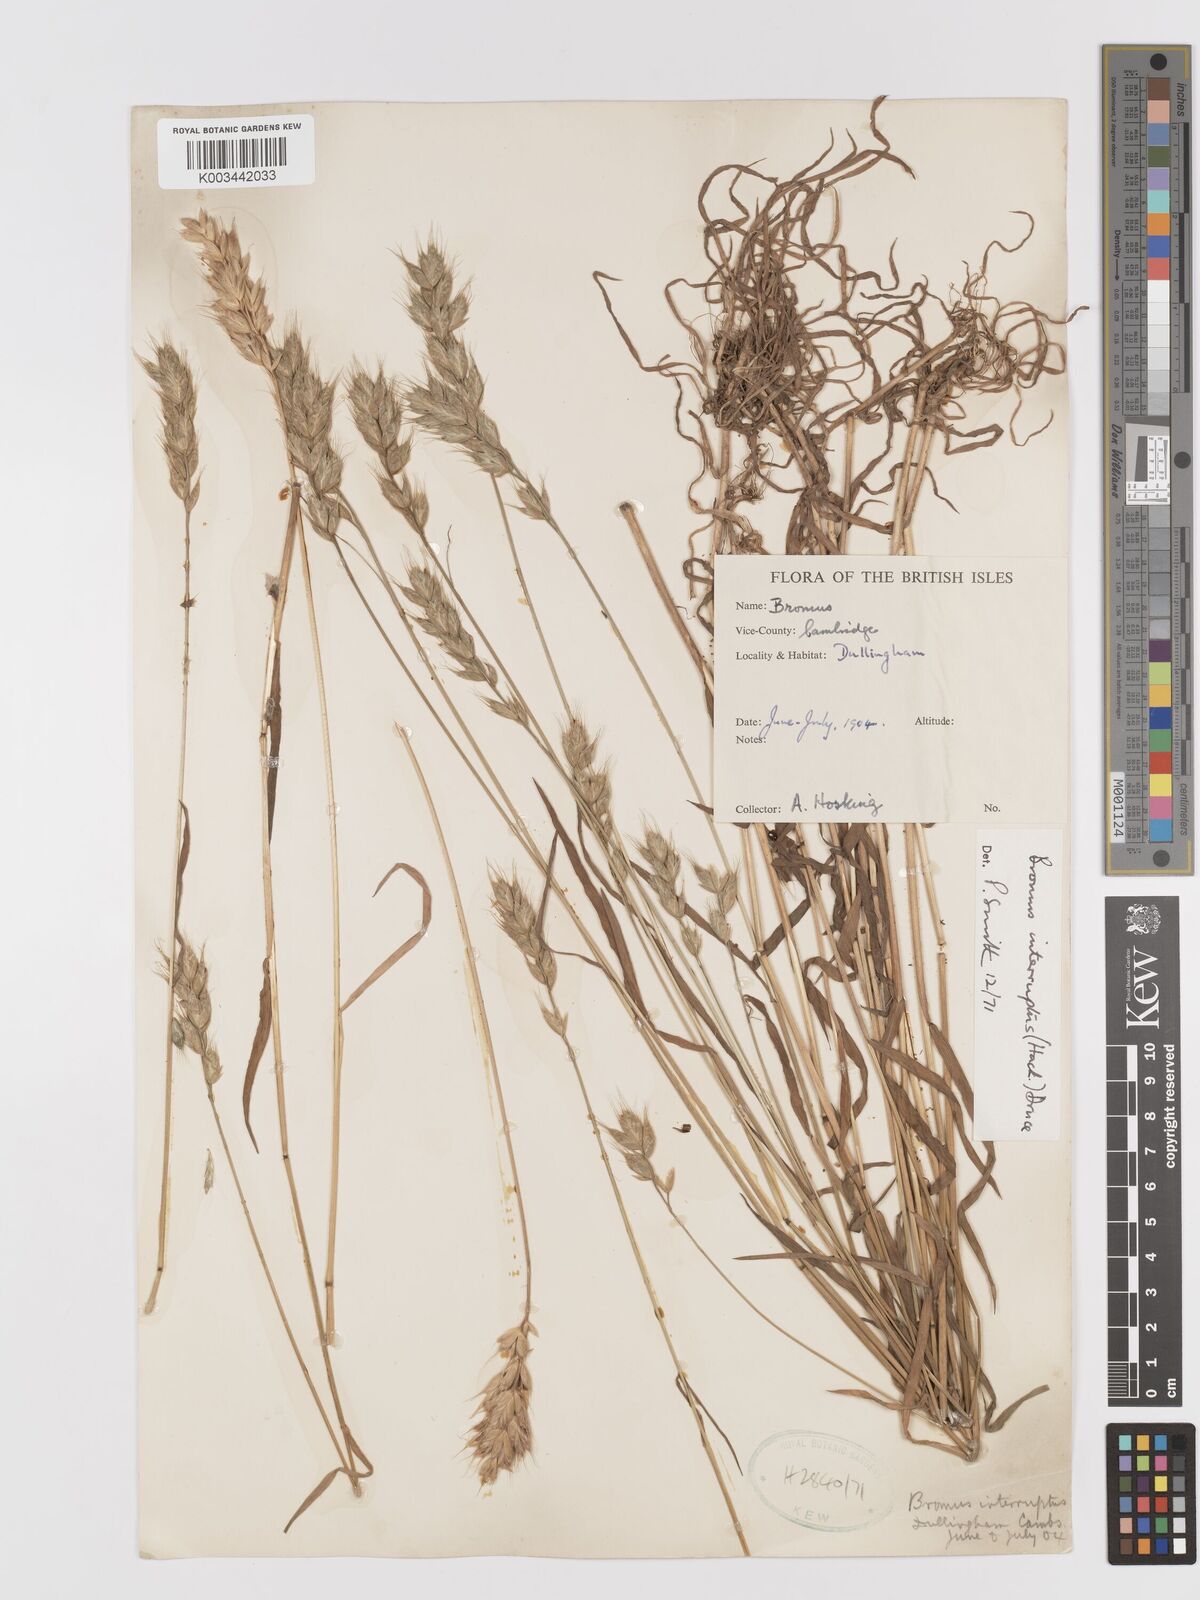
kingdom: Plantae
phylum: Tracheophyta
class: Liliopsida
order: Poales
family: Poaceae
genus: Bromus
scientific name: Bromus interruptus
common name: Interrupted brome
